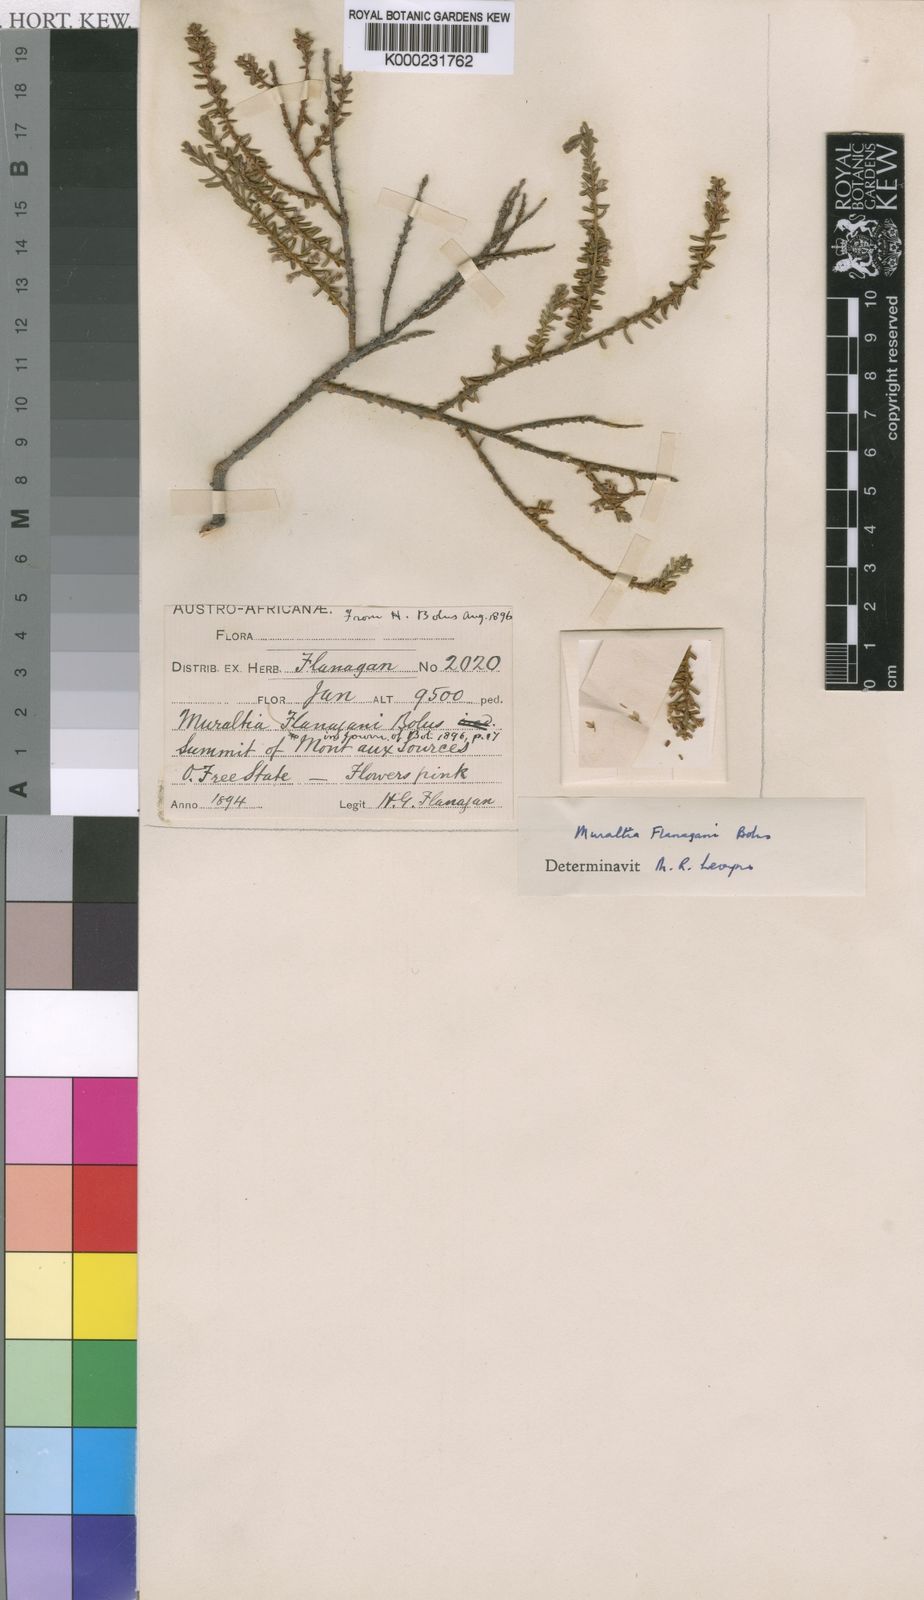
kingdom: Plantae
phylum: Tracheophyta
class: Magnoliopsida
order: Fabales
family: Polygalaceae
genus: Muraltia
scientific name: Muraltia flanaganii
